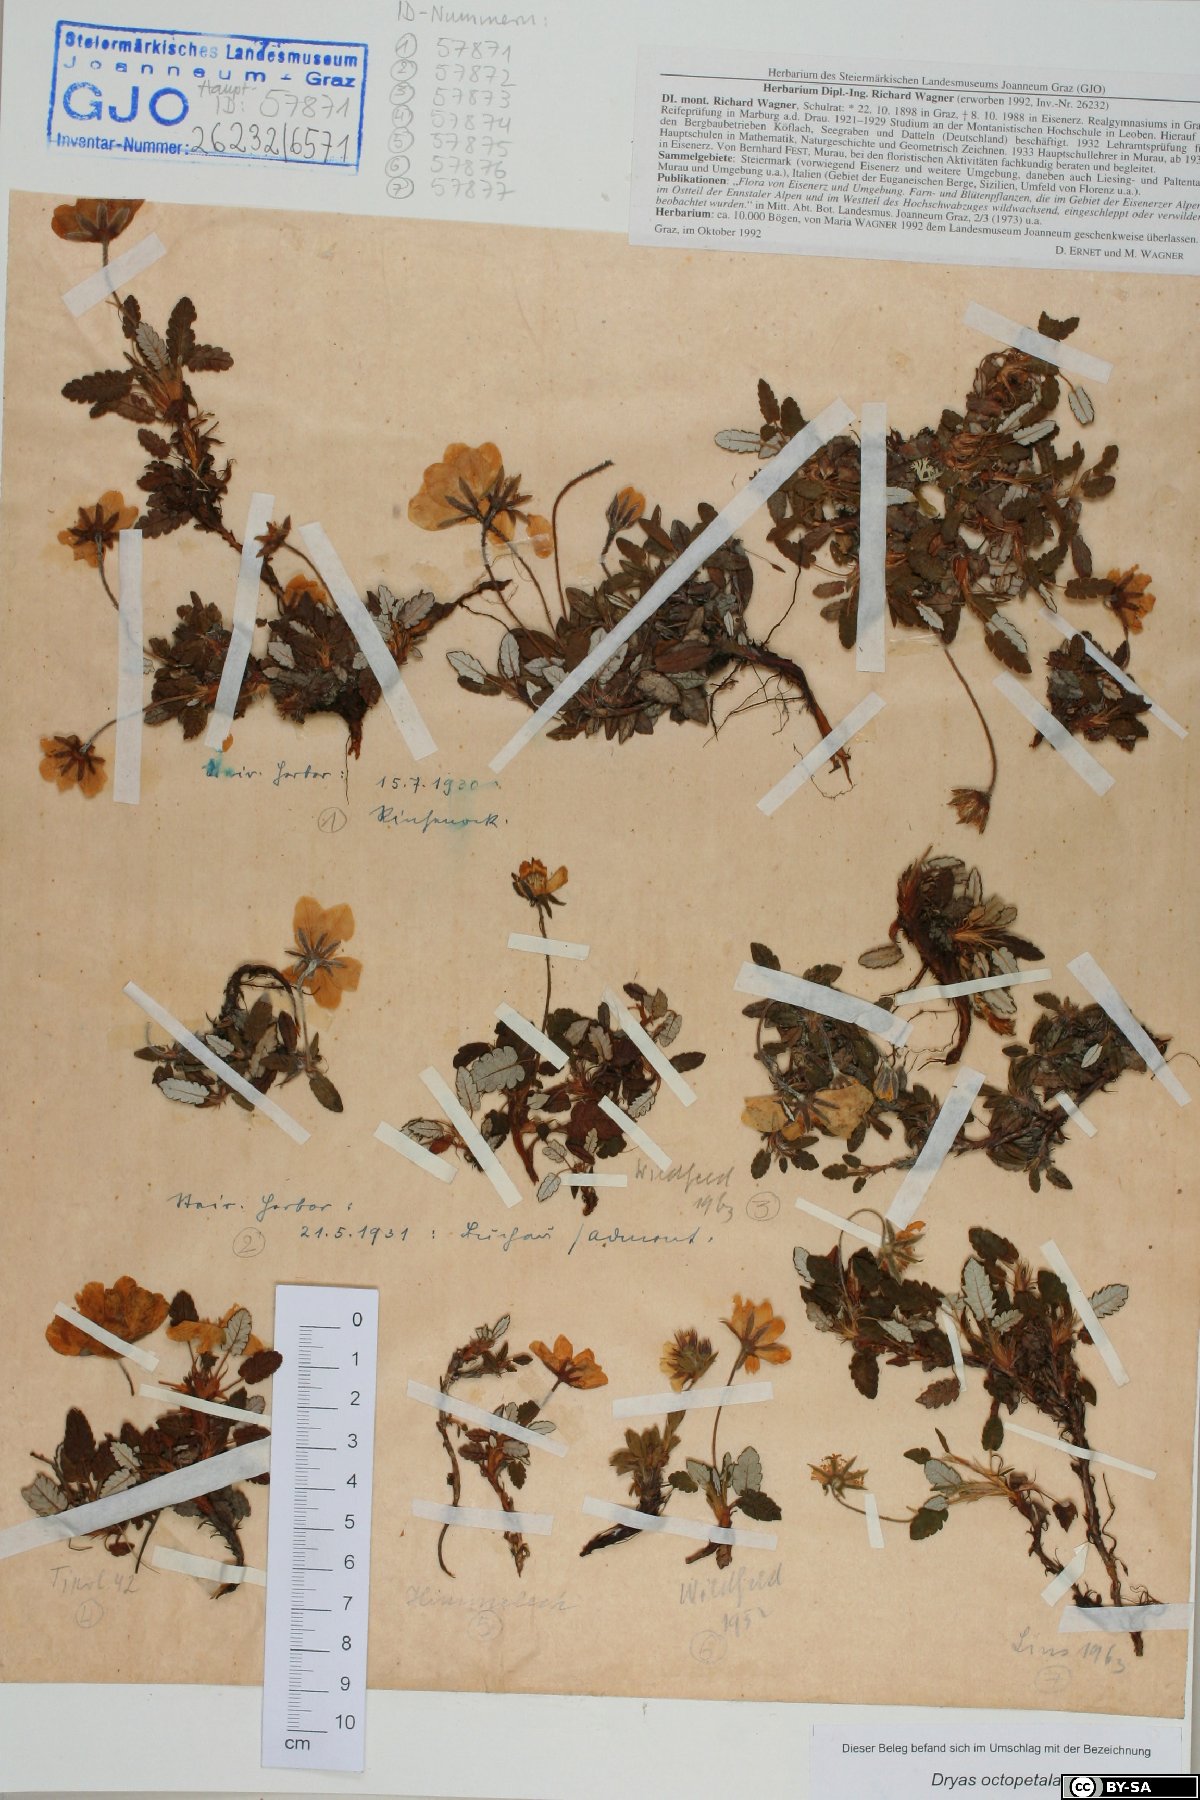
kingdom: Plantae
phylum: Tracheophyta
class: Magnoliopsida
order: Rosales
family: Rosaceae
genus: Dryas
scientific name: Dryas octopetala
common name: Eight-petal mountain-avens
